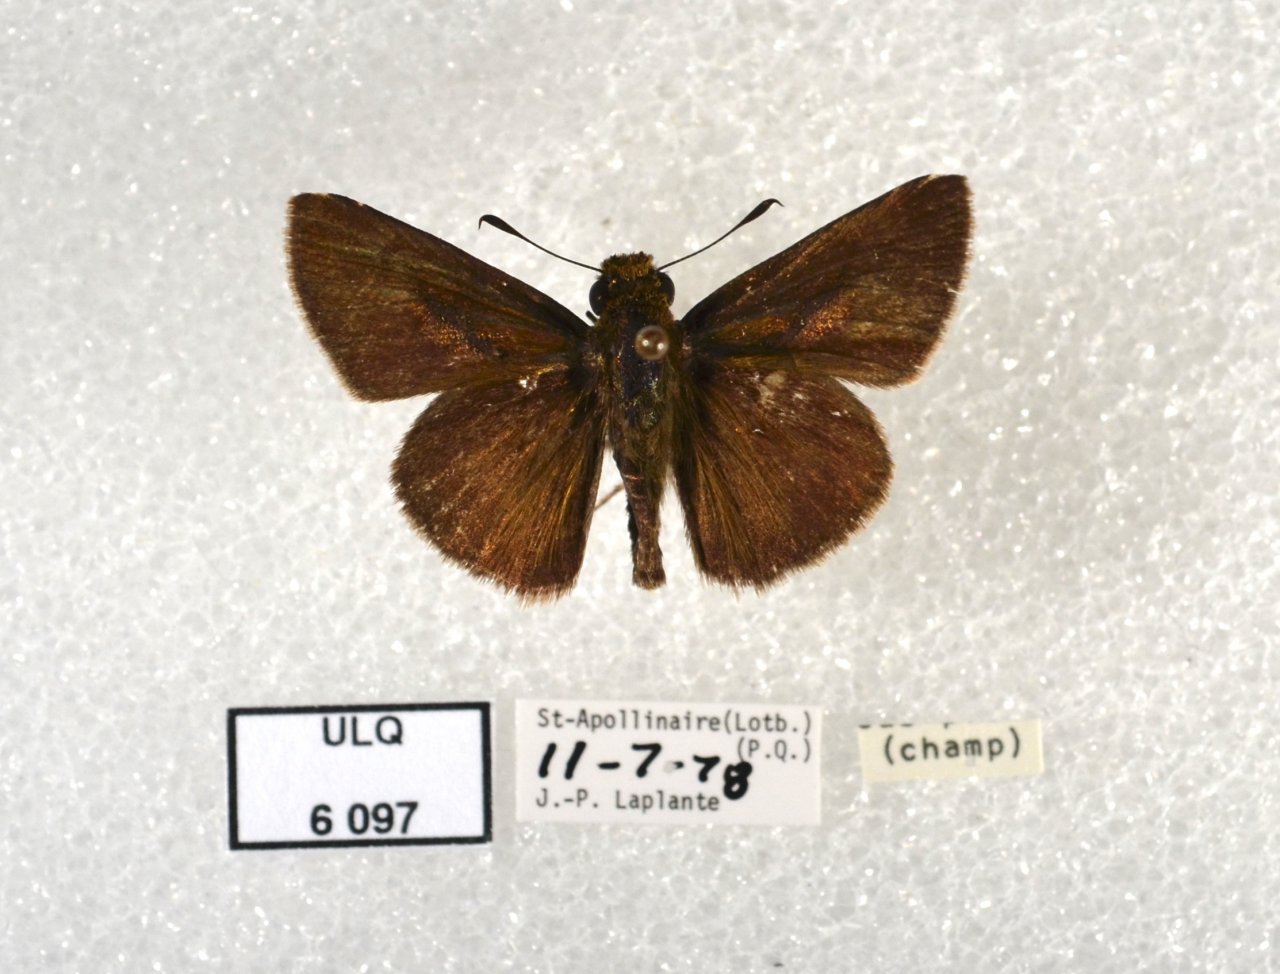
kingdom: Animalia
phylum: Arthropoda
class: Insecta
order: Lepidoptera
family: Hesperiidae
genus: Euphyes
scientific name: Euphyes vestris
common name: Dun Skipper
